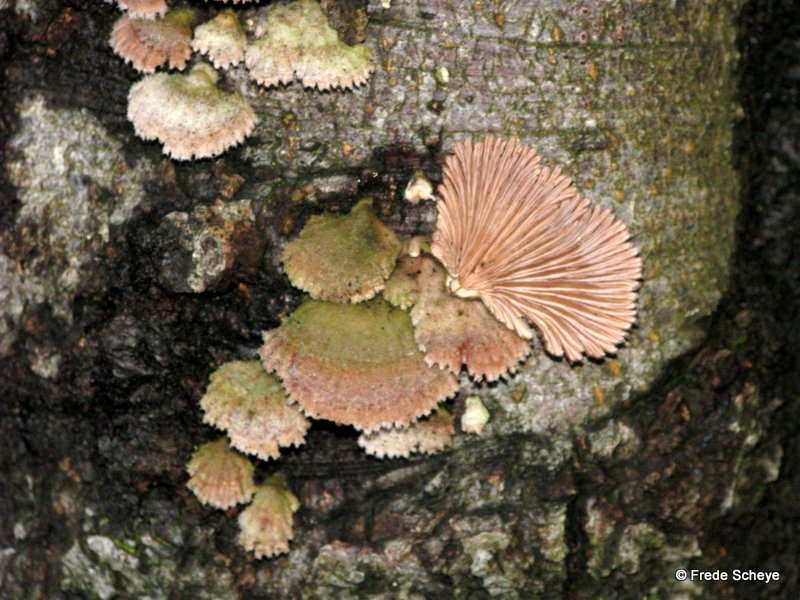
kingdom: Fungi
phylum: Basidiomycota
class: Agaricomycetes
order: Agaricales
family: Schizophyllaceae
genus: Schizophyllum
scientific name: Schizophyllum commune
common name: kløvblad
